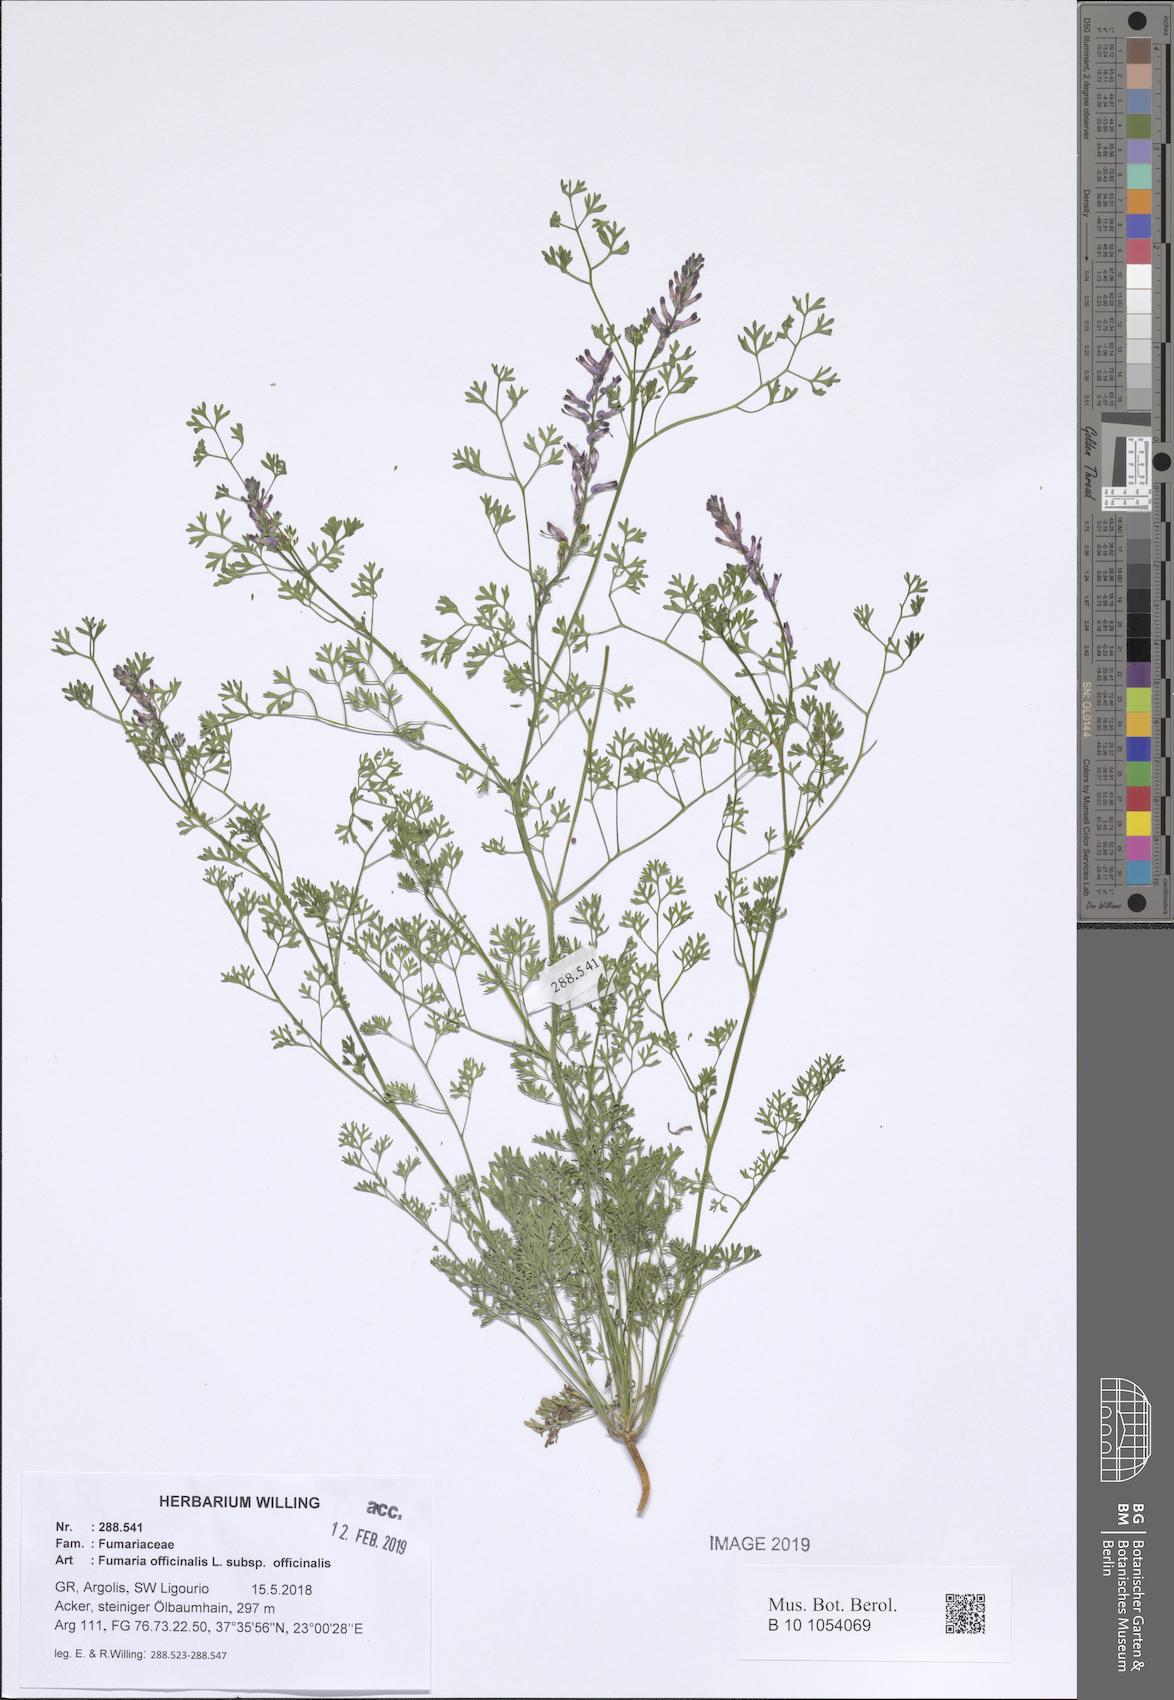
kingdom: Plantae
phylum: Tracheophyta
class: Magnoliopsida
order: Ranunculales
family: Papaveraceae
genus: Fumaria
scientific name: Fumaria officinalis
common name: Common fumitory
